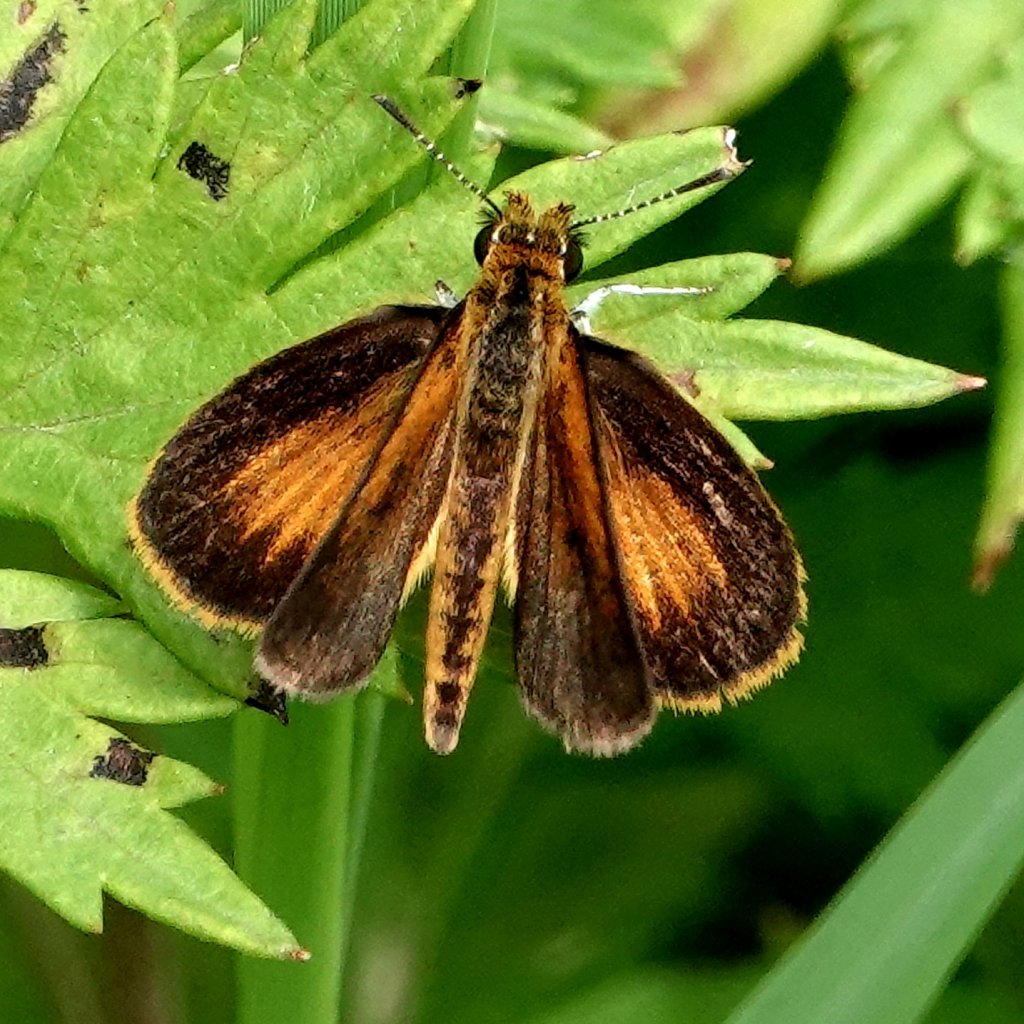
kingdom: Animalia
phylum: Arthropoda
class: Insecta
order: Lepidoptera
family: Hesperiidae
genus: Ancyloxypha
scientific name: Ancyloxypha numitor
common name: Least Skipper
